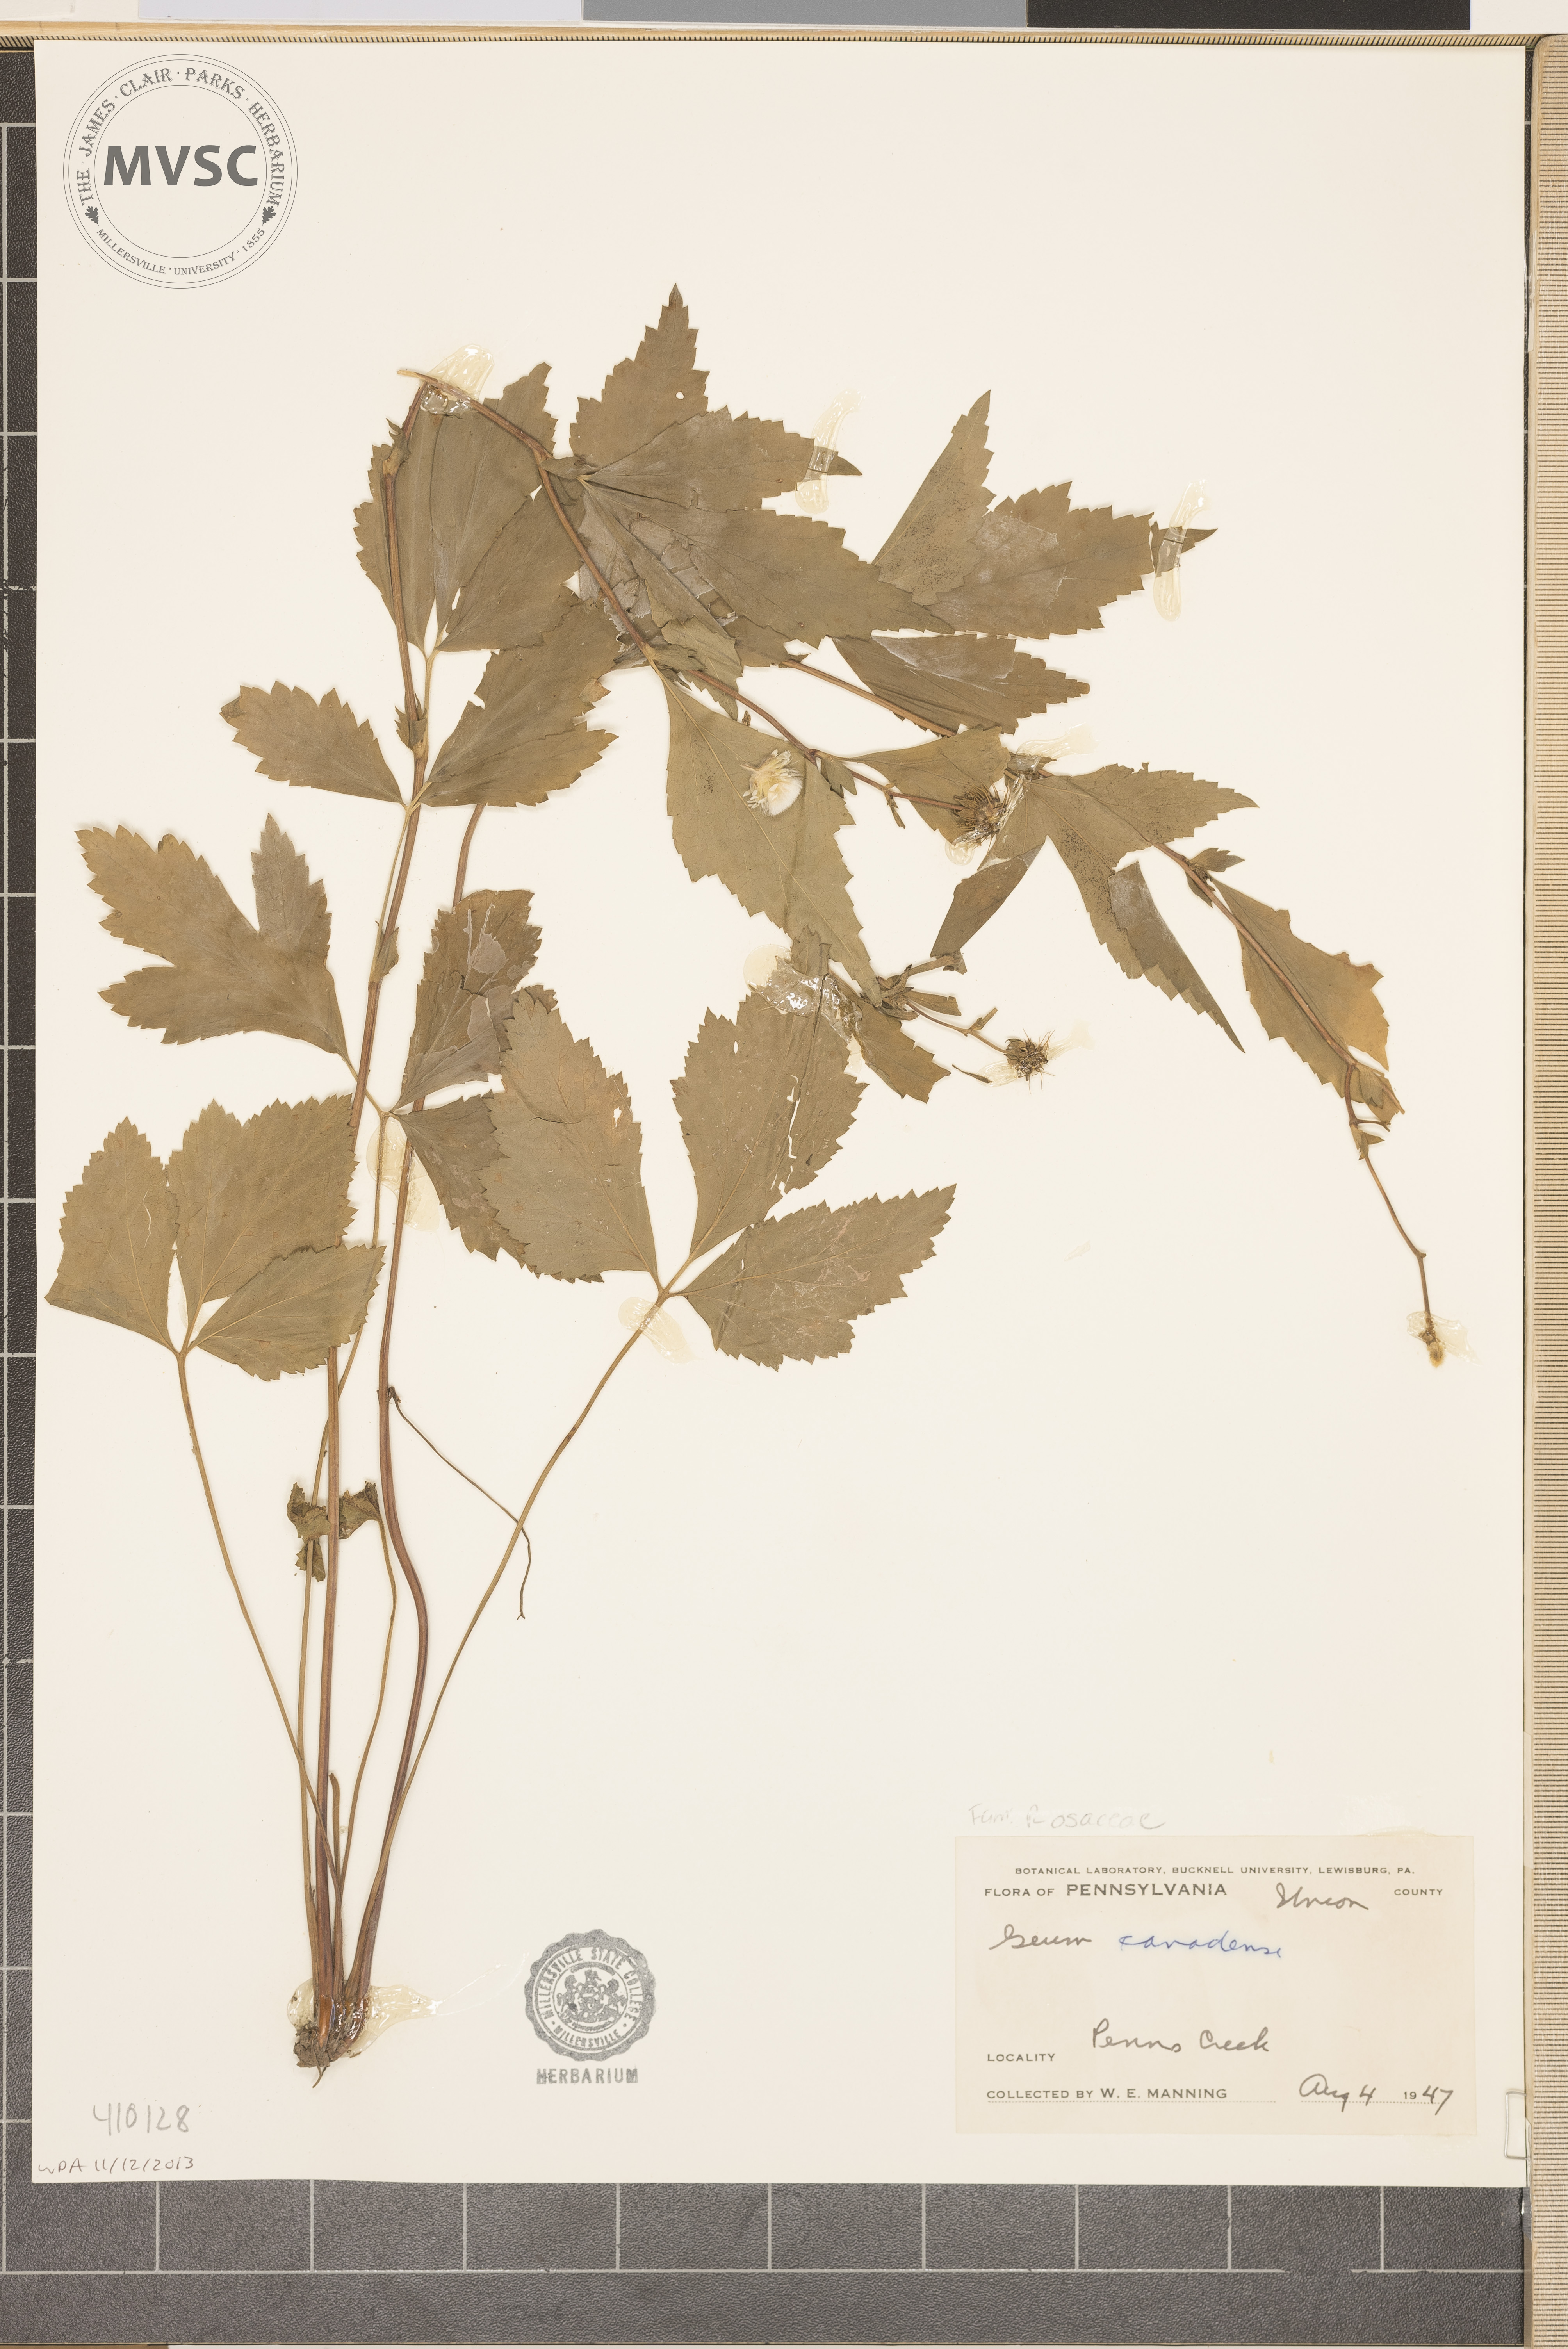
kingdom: Plantae
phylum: Tracheophyta
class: Magnoliopsida
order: Rosales
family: Rosaceae
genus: Geum
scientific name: Geum canadense
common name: White avens
